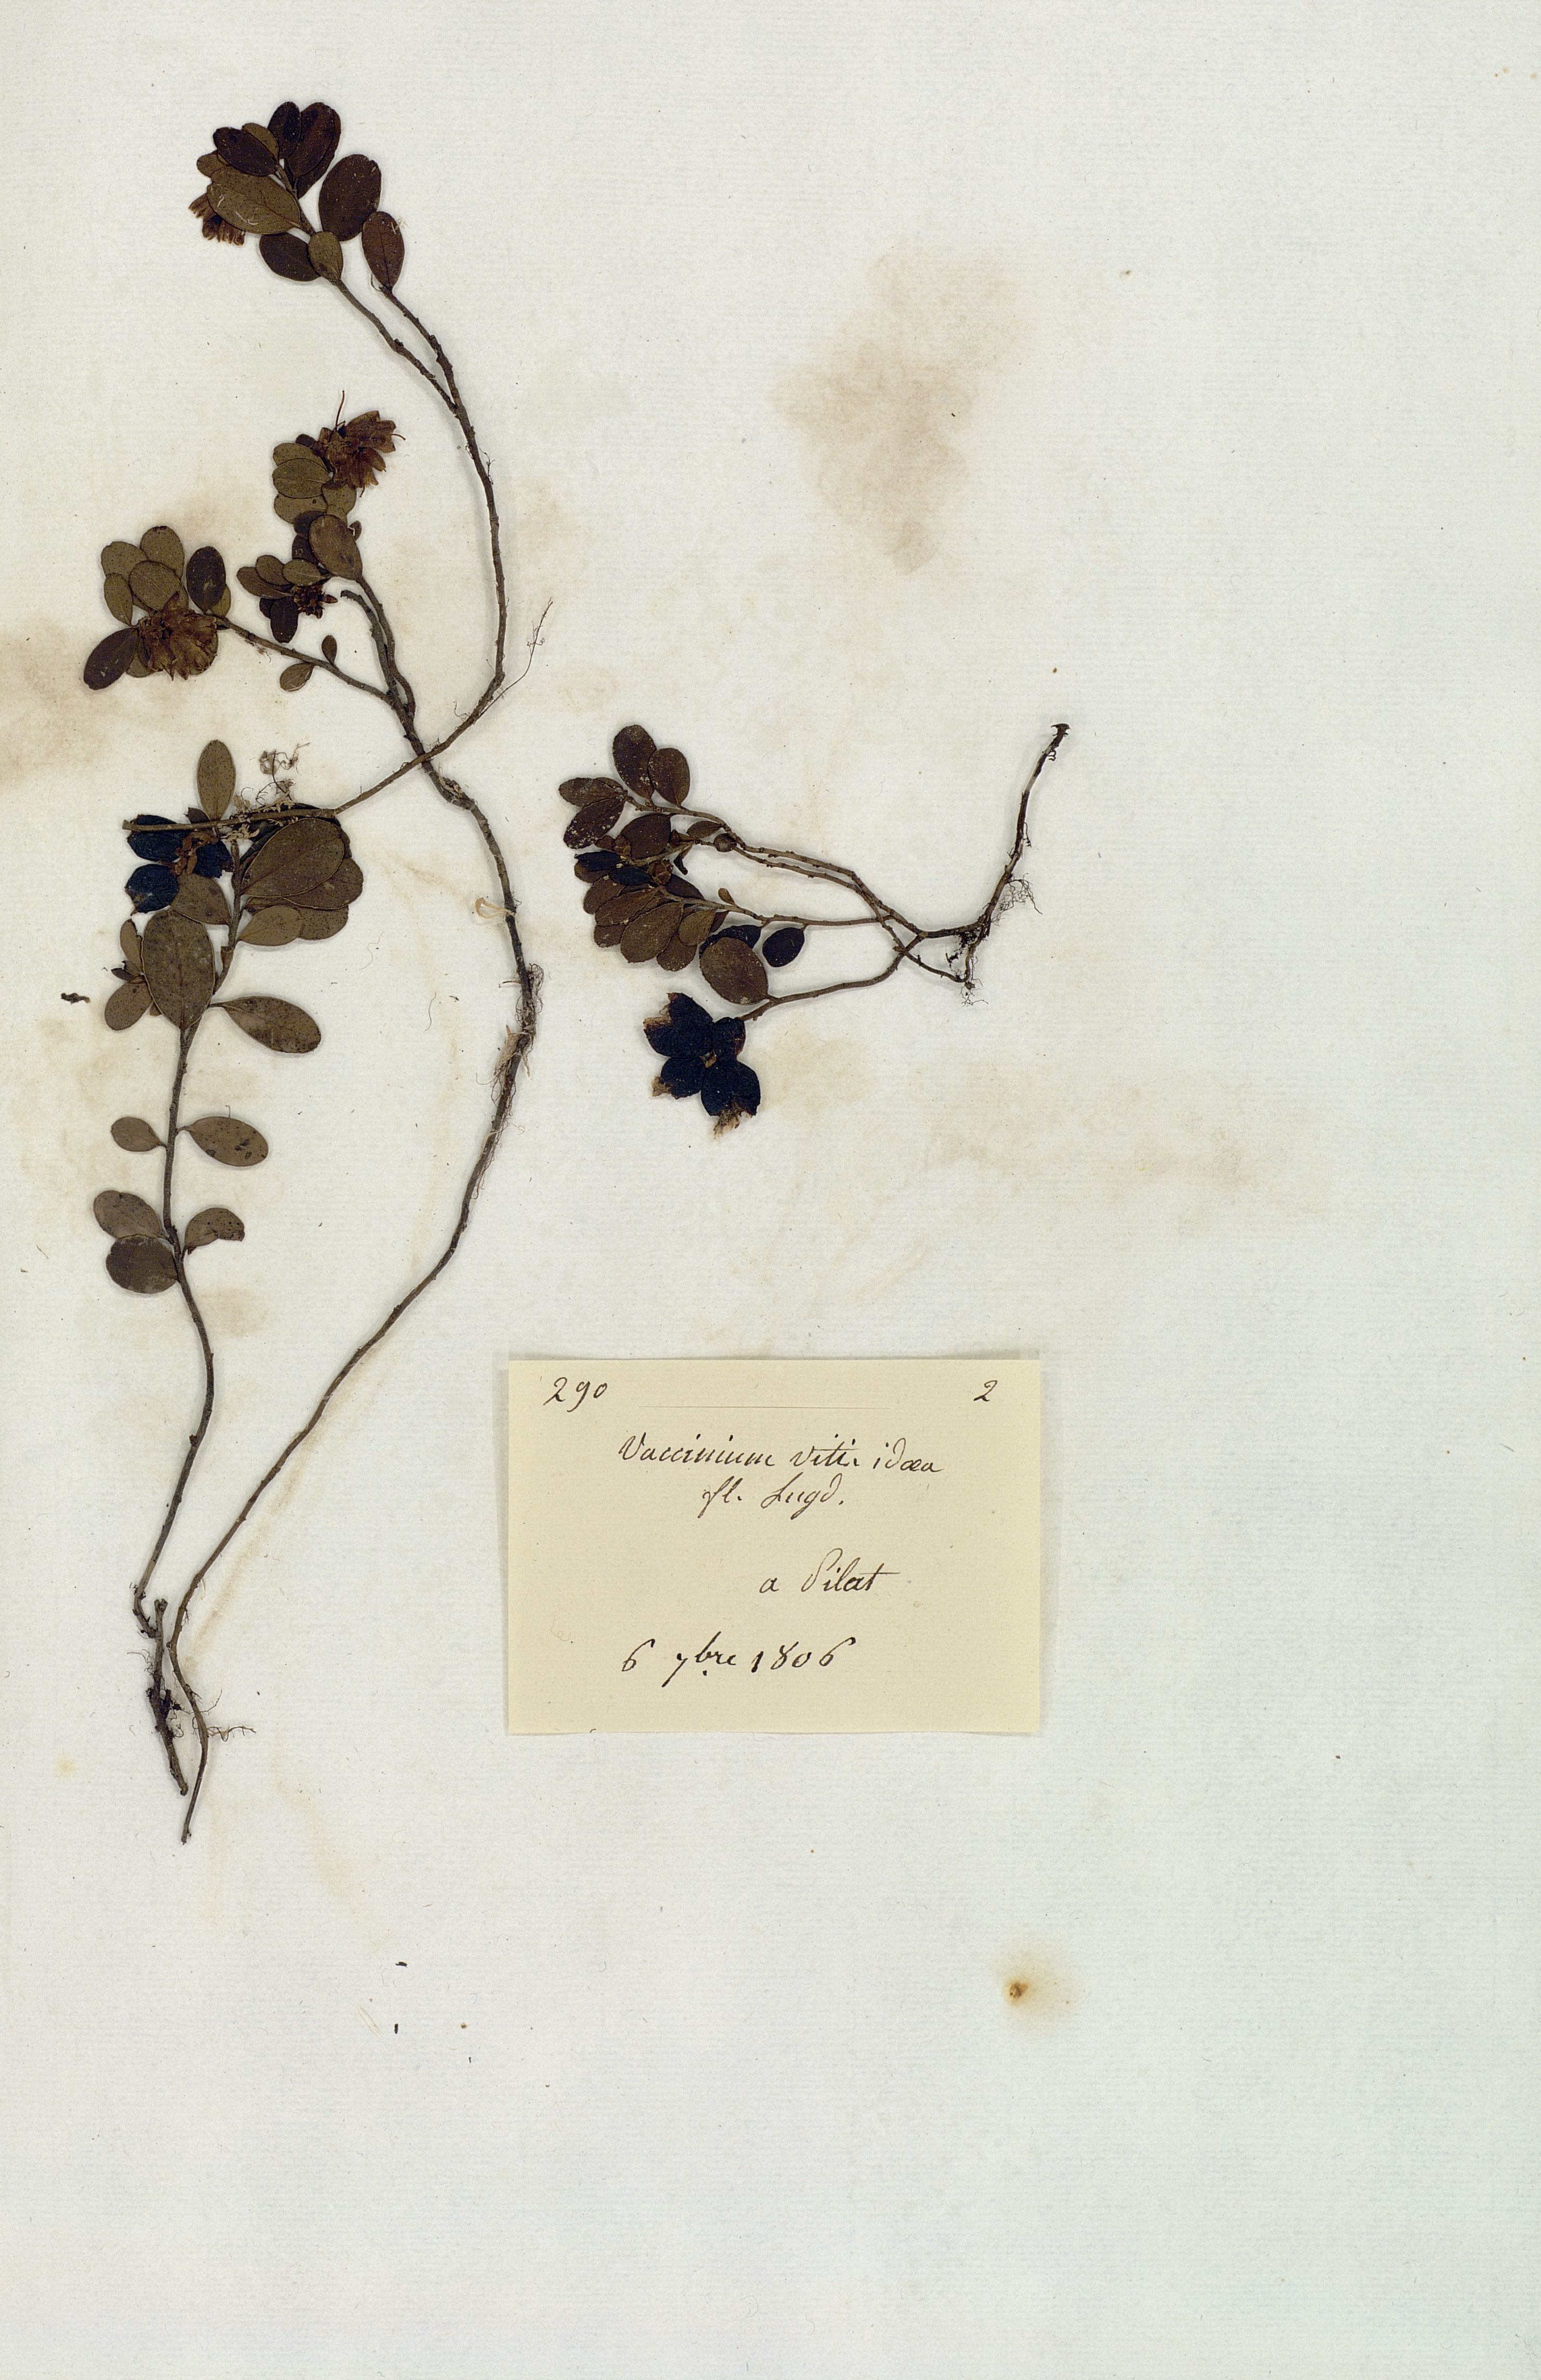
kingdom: Plantae
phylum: Tracheophyta
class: Magnoliopsida
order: Ericales
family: Ericaceae
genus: Vaccinium
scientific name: Vaccinium vitis-idaea
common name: Cowberry
